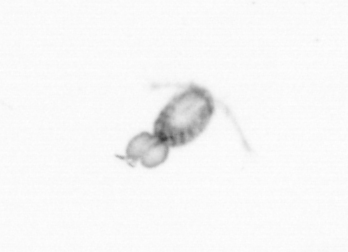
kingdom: Animalia
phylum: Arthropoda
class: Copepoda
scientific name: Copepoda
